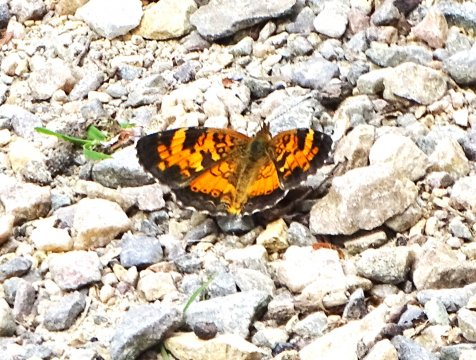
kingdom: Animalia
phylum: Arthropoda
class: Insecta
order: Lepidoptera
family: Nymphalidae
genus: Phyciodes
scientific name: Phyciodes tharos
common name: Northern Crescent
